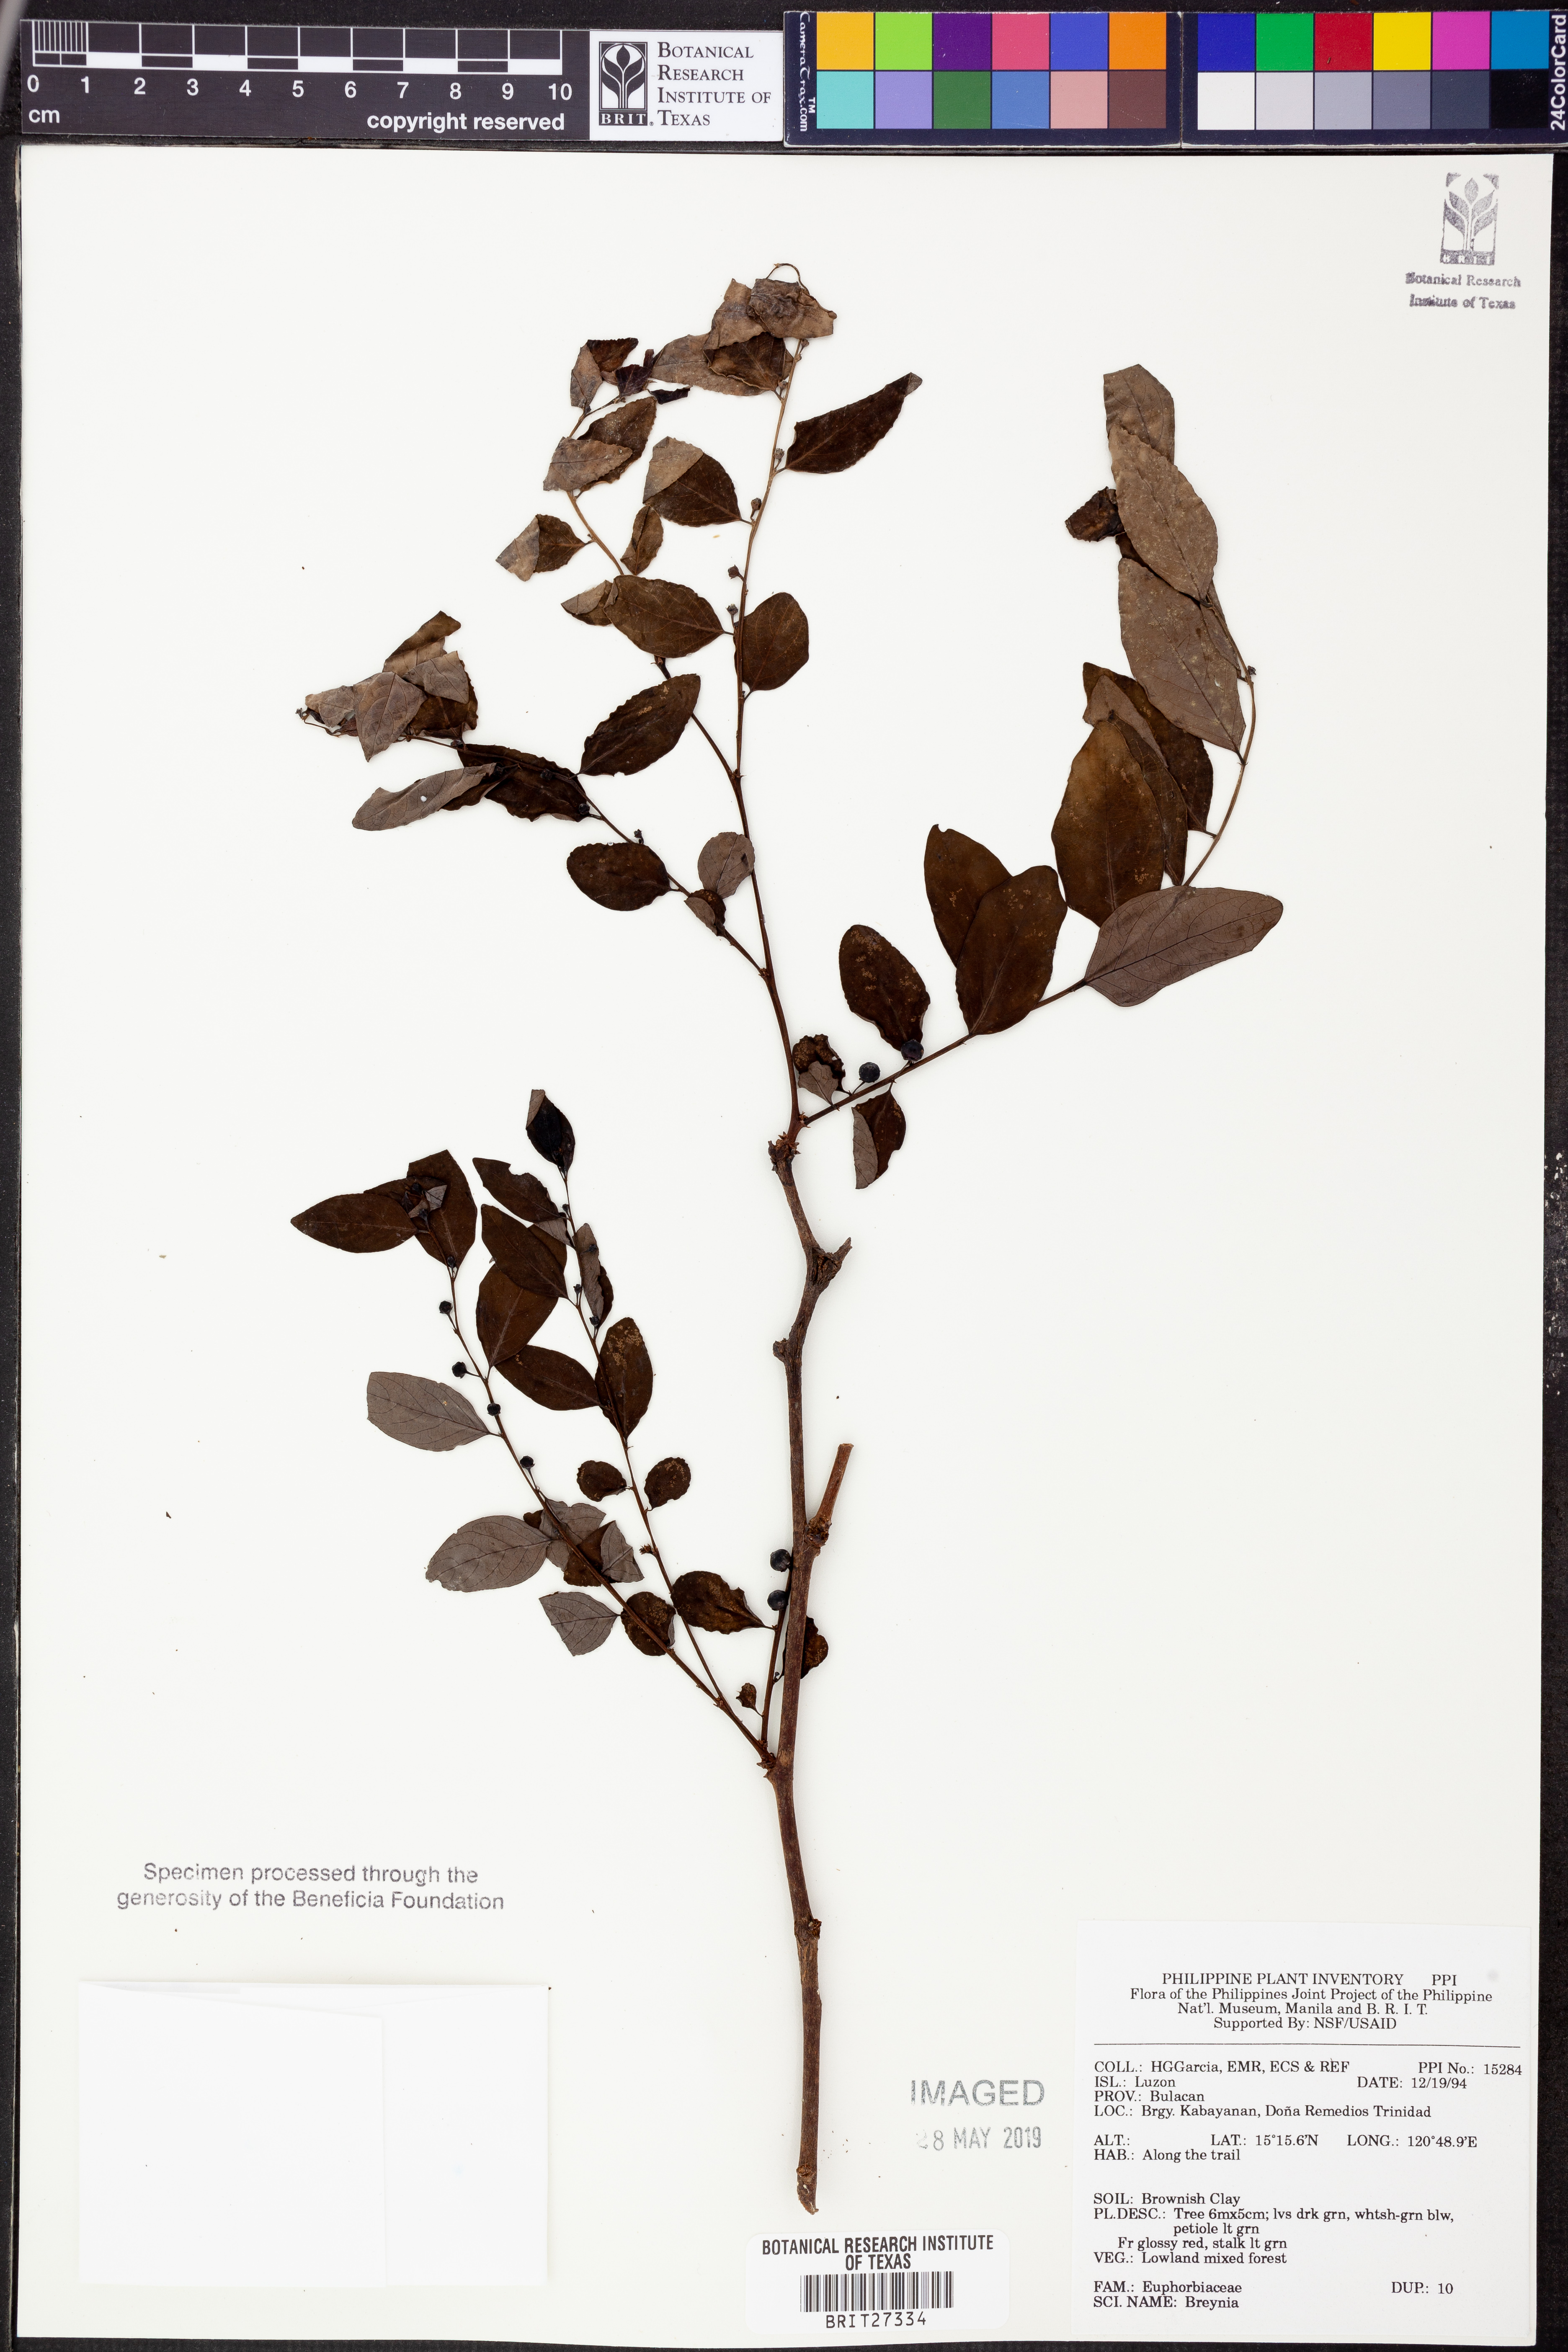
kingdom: Plantae
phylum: Tracheophyta
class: Magnoliopsida
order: Malpighiales
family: Phyllanthaceae
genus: Breynia
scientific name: Breynia
